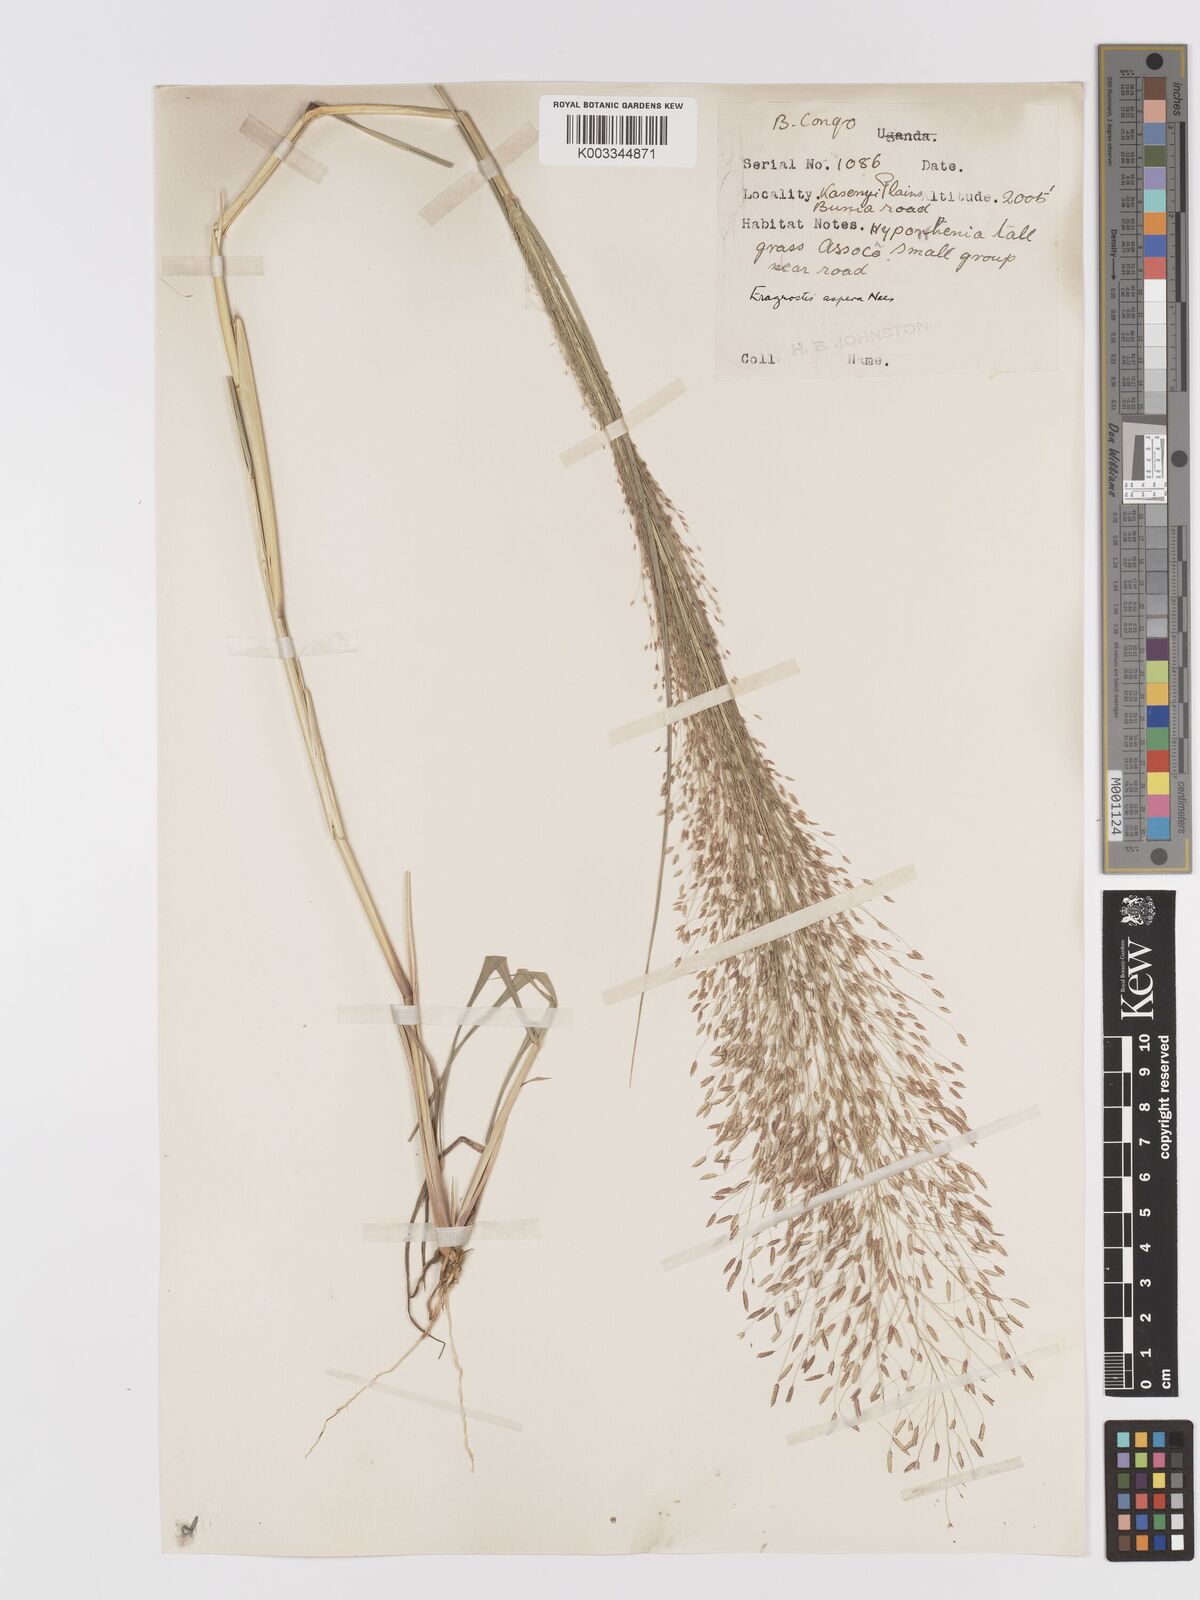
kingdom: Plantae
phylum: Tracheophyta
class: Liliopsida
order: Poales
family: Poaceae
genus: Eragrostis
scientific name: Eragrostis aspera
